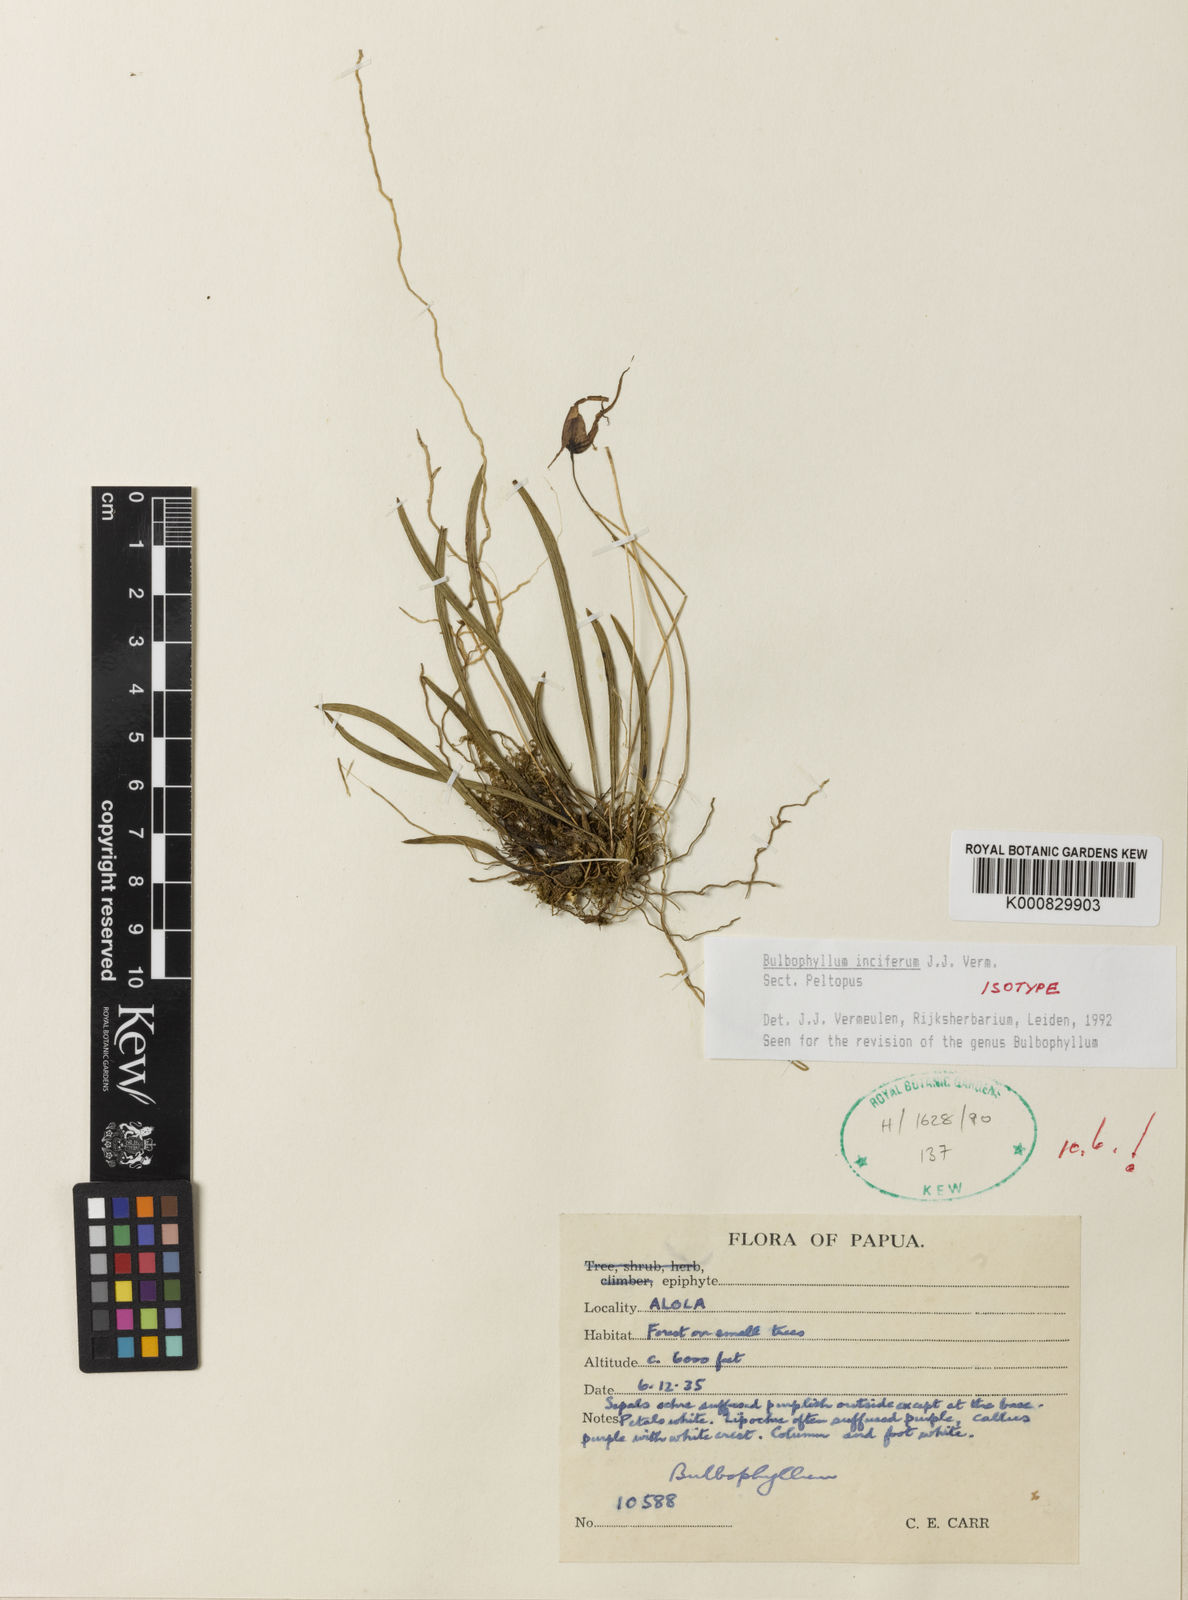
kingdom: Plantae
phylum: Tracheophyta
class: Liliopsida
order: Asparagales
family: Orchidaceae
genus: Bulbophyllum
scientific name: Bulbophyllum
